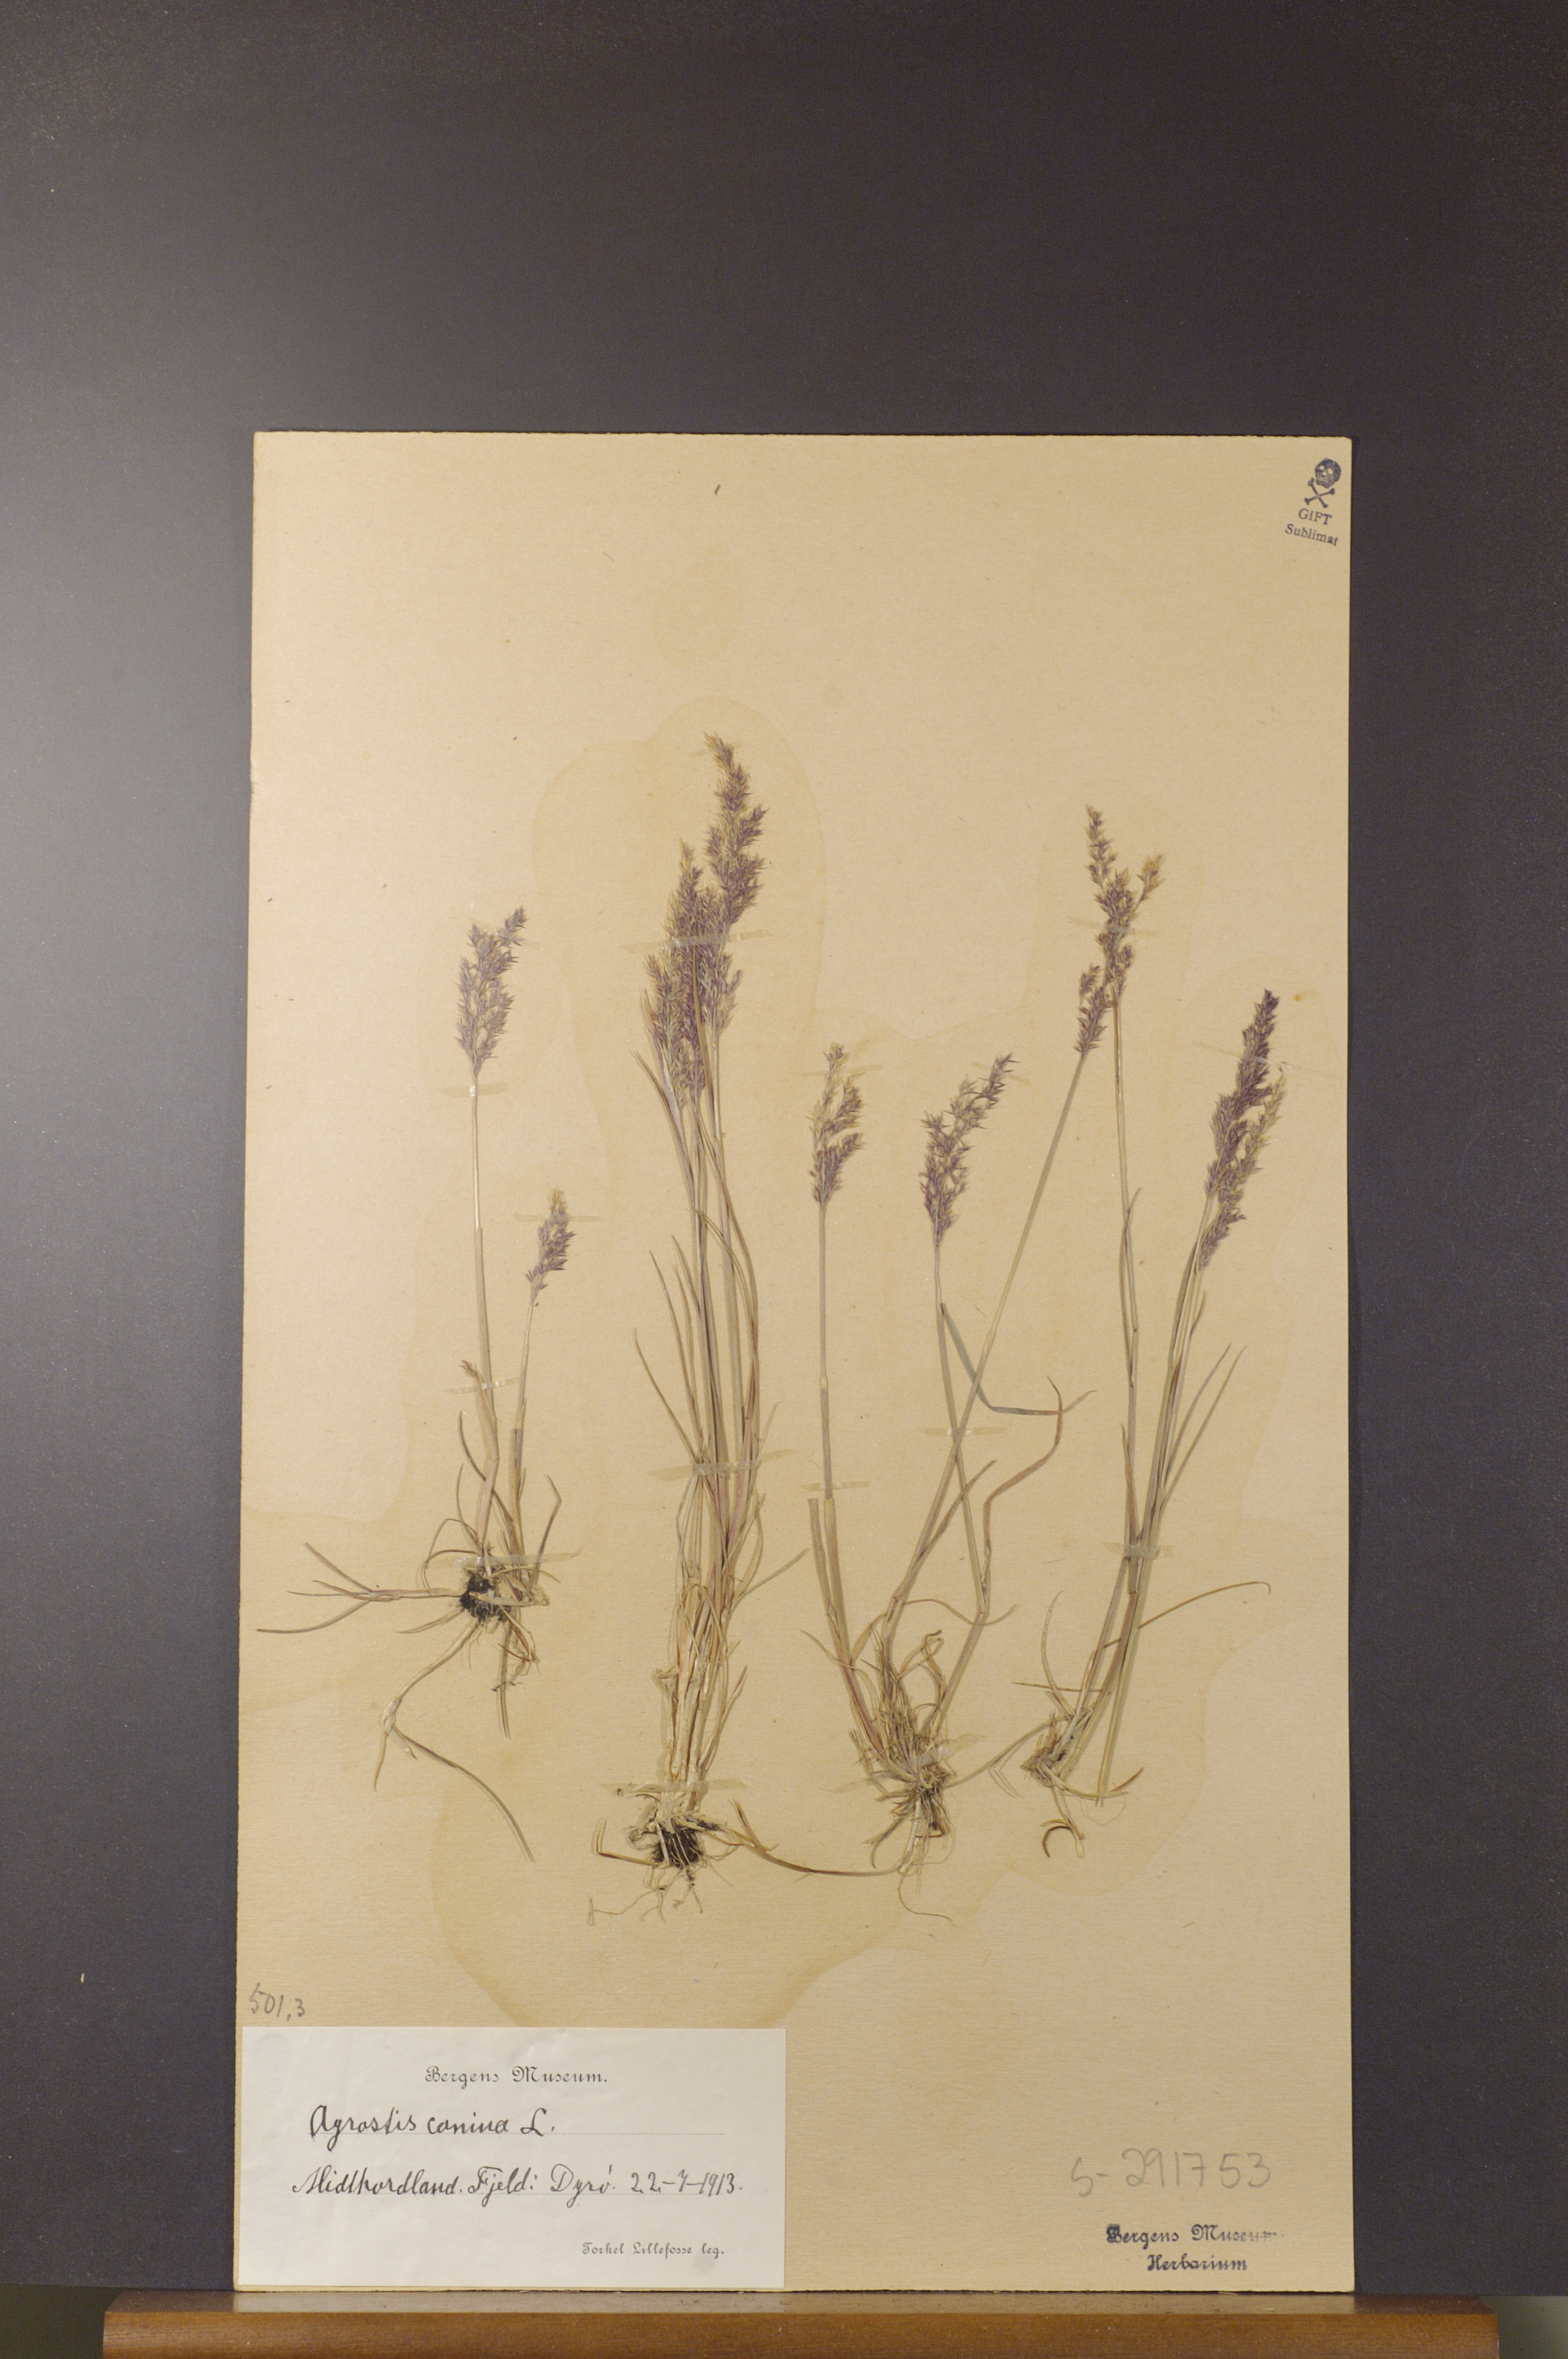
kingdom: Plantae
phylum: Tracheophyta
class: Liliopsida
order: Poales
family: Poaceae
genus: Agrostis
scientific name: Agrostis canina
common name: Velvet bent
